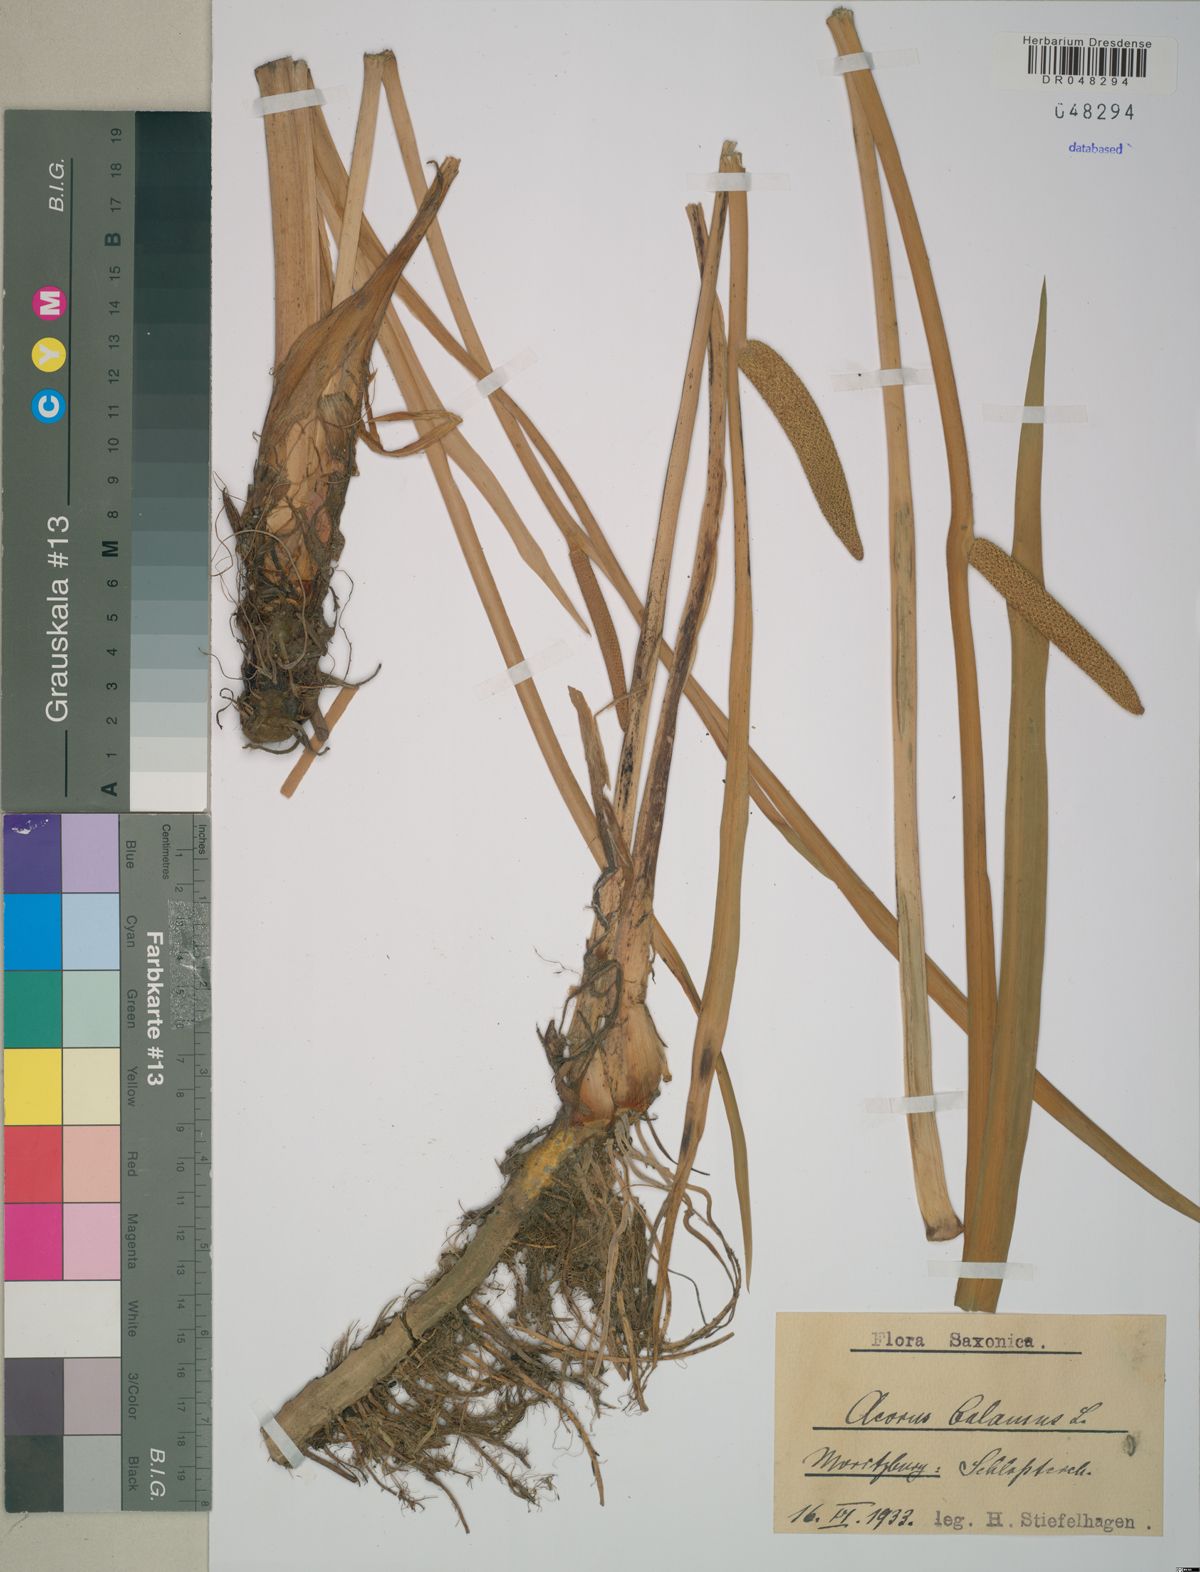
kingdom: Plantae
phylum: Tracheophyta
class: Liliopsida
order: Acorales
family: Acoraceae
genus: Acorus
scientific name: Acorus calamus
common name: Sweet-flag
